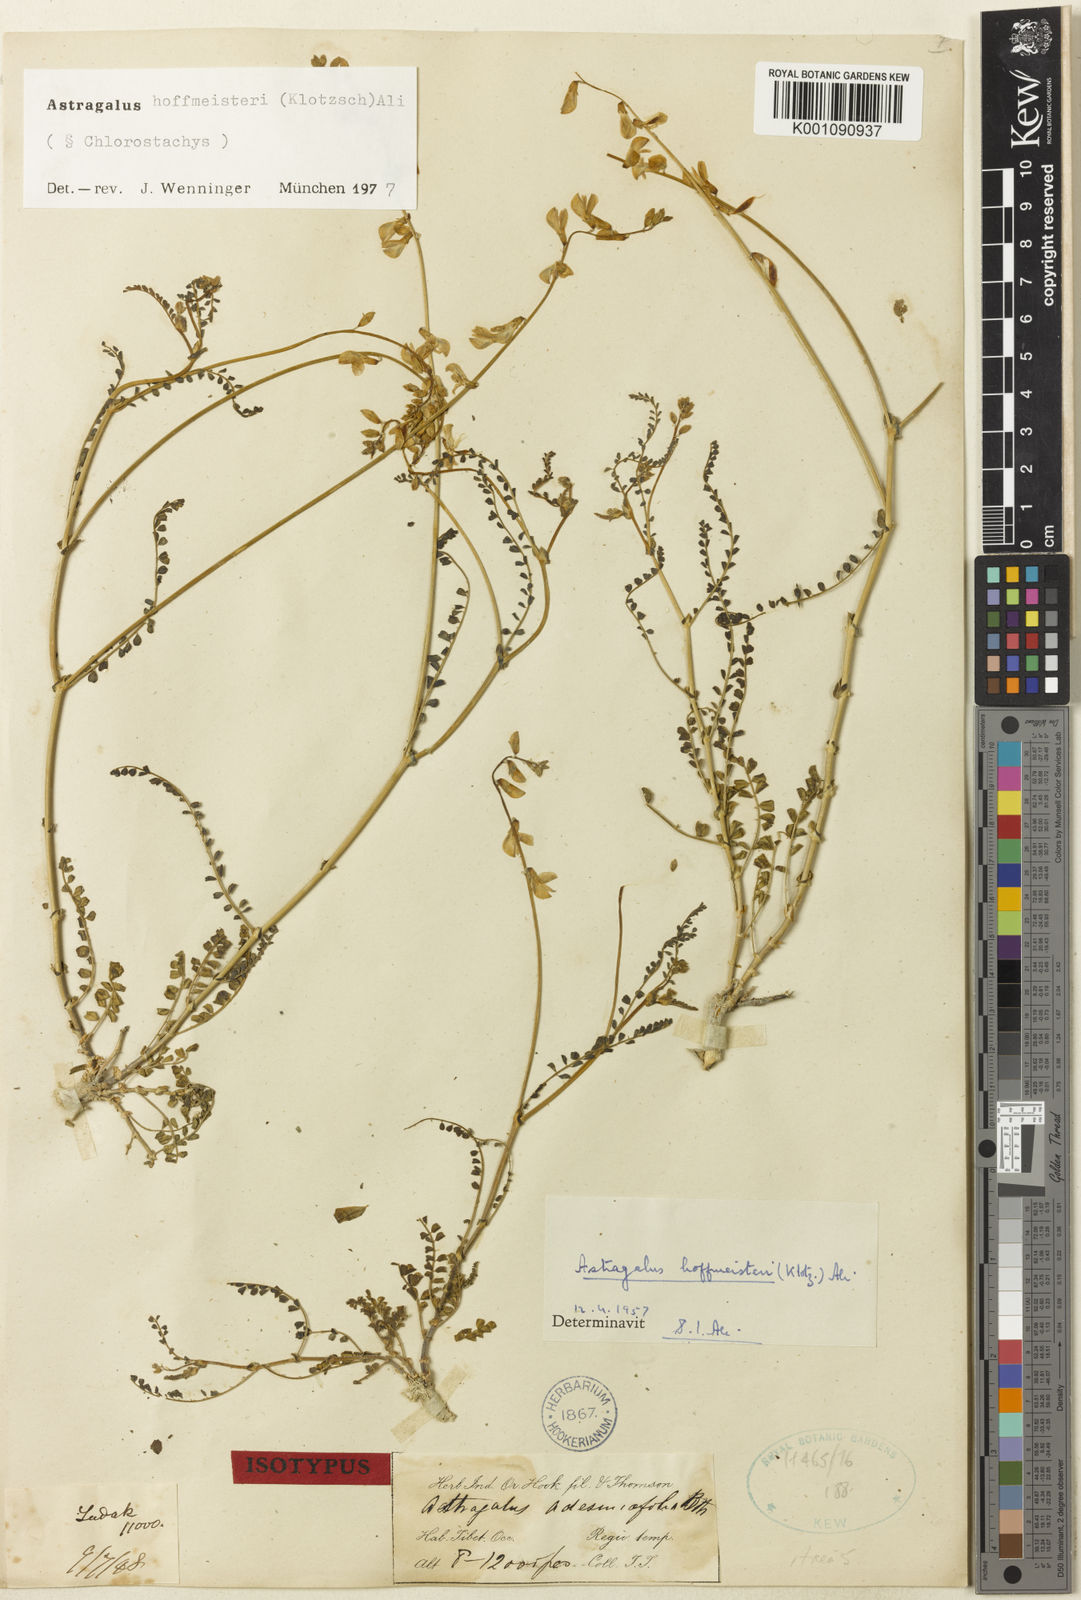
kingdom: Plantae
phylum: Tracheophyta
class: Magnoliopsida
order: Fabales
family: Fabaceae
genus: Astragalus
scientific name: Astragalus hoffmeisteri
